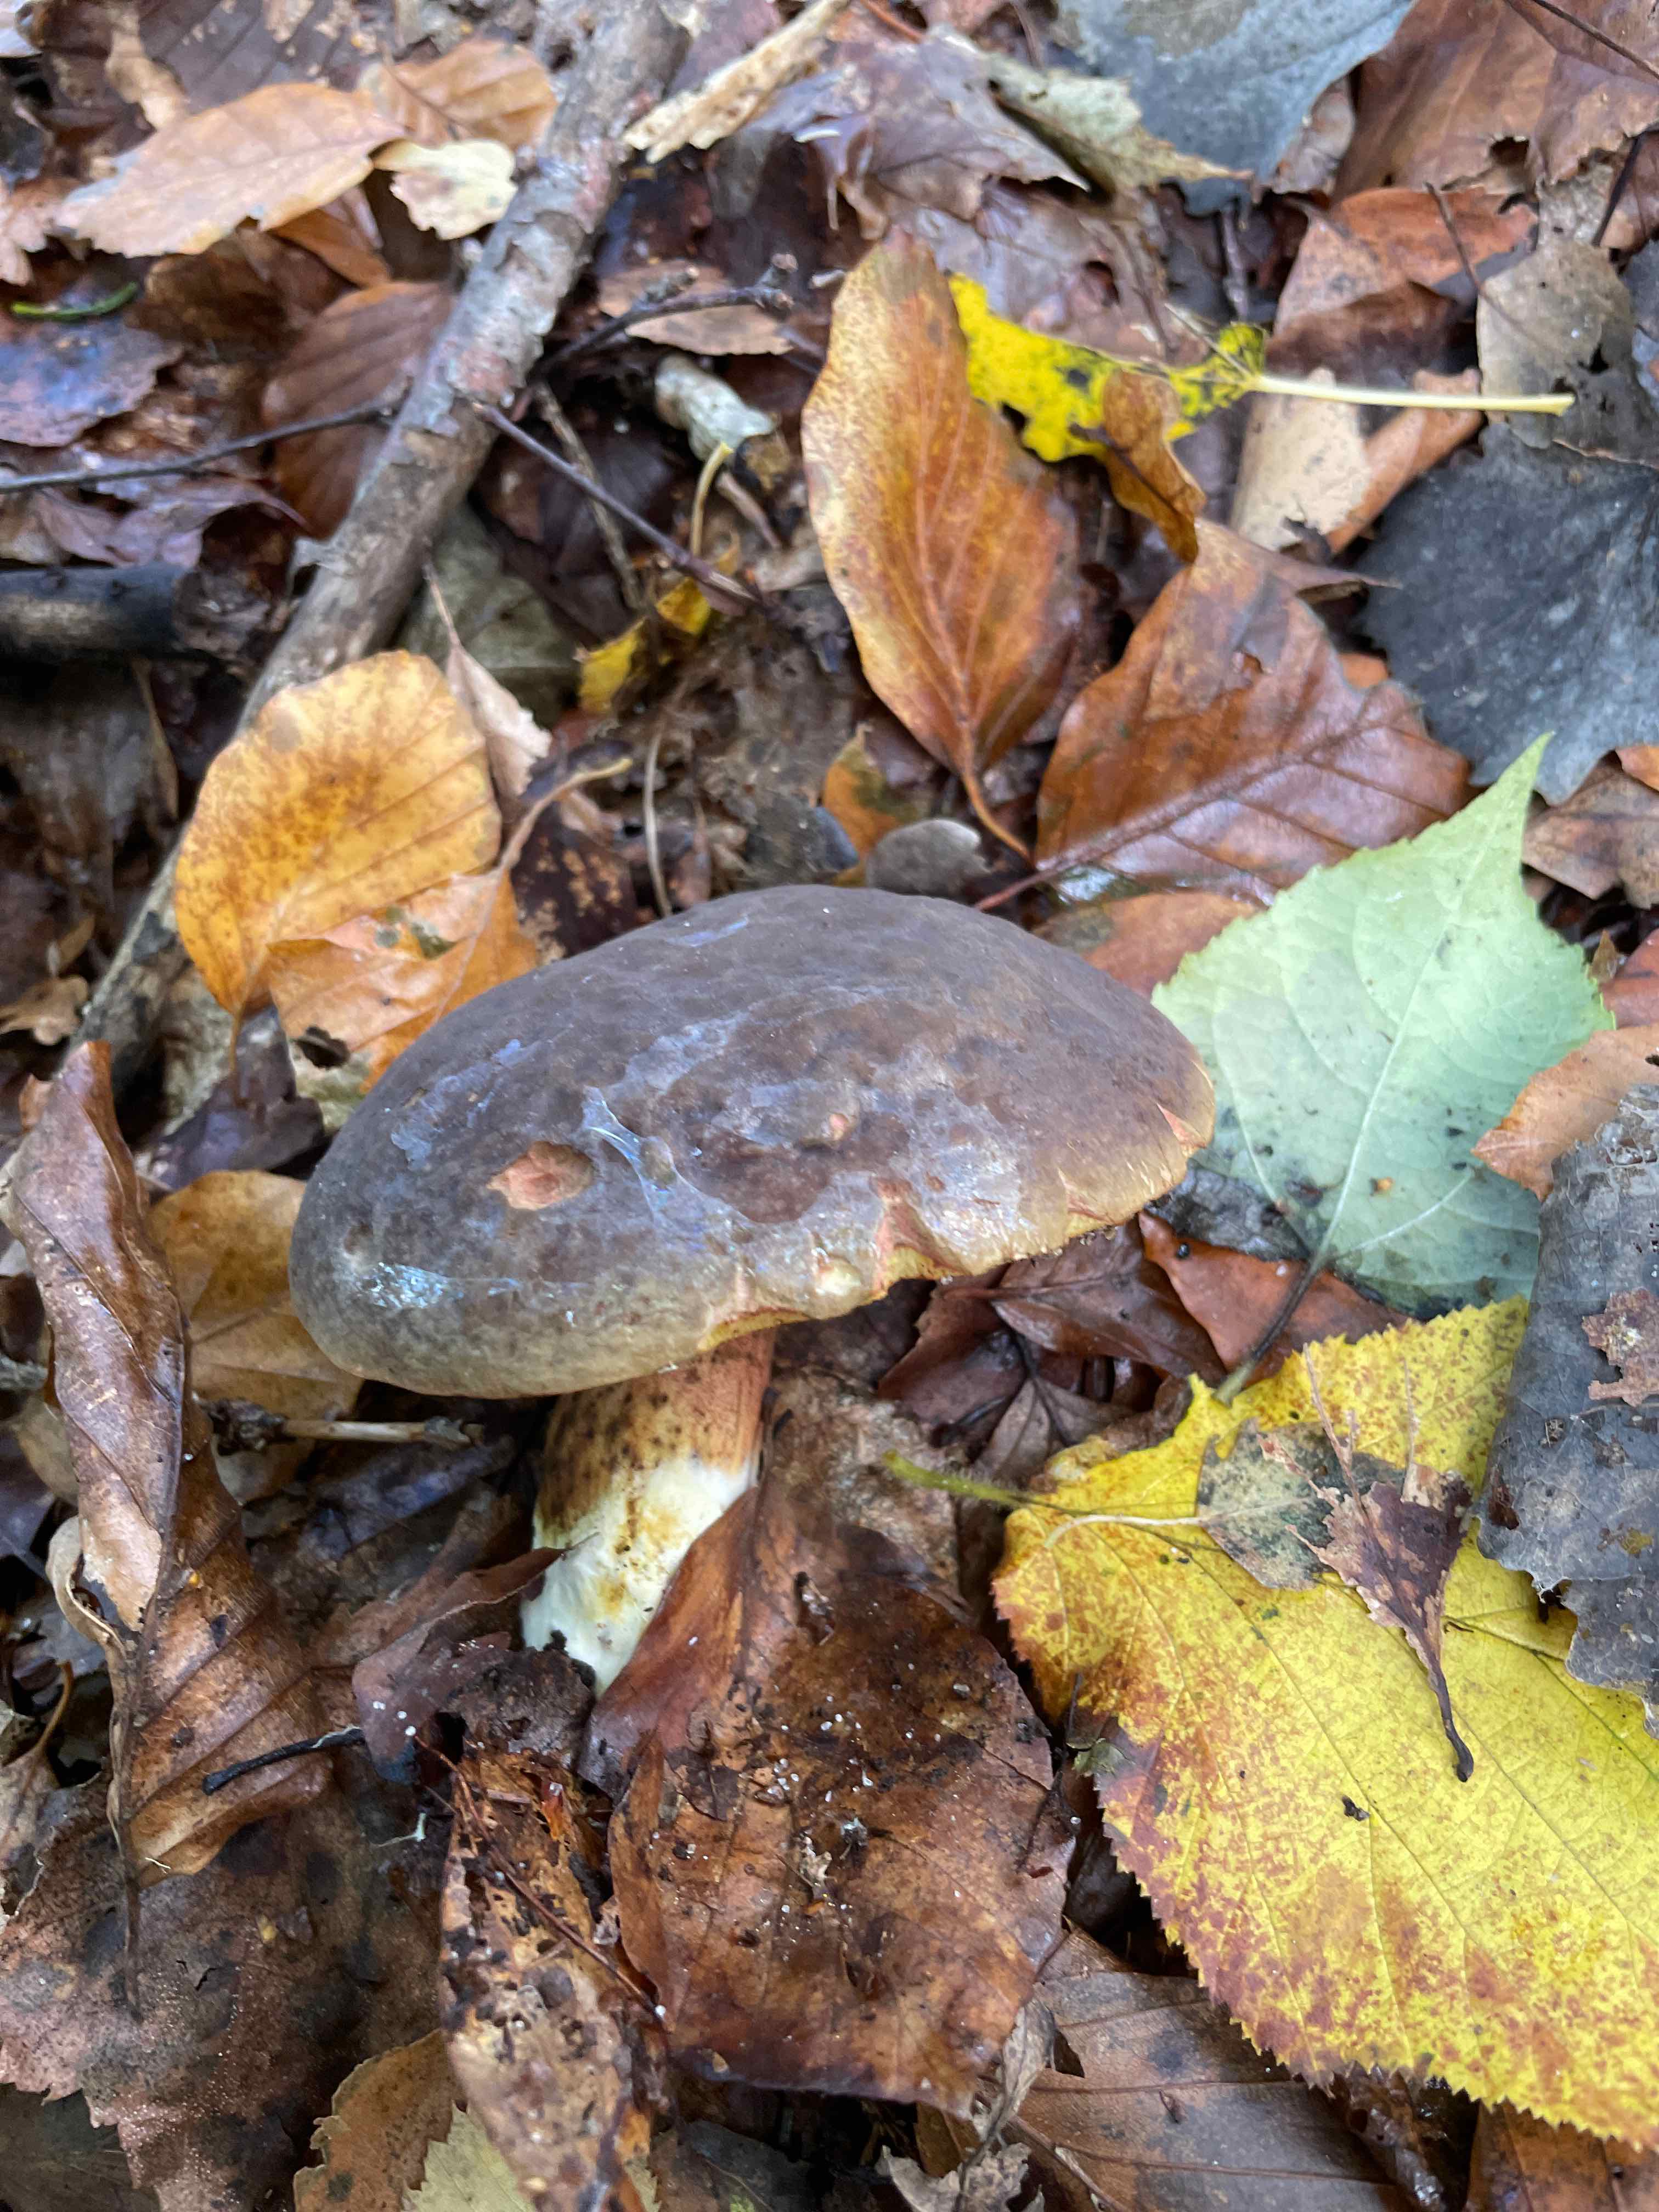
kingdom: Fungi
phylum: Basidiomycota
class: Agaricomycetes
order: Boletales
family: Boletaceae
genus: Xerocomellus
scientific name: Xerocomellus pruinatus
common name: dugget rørhat
